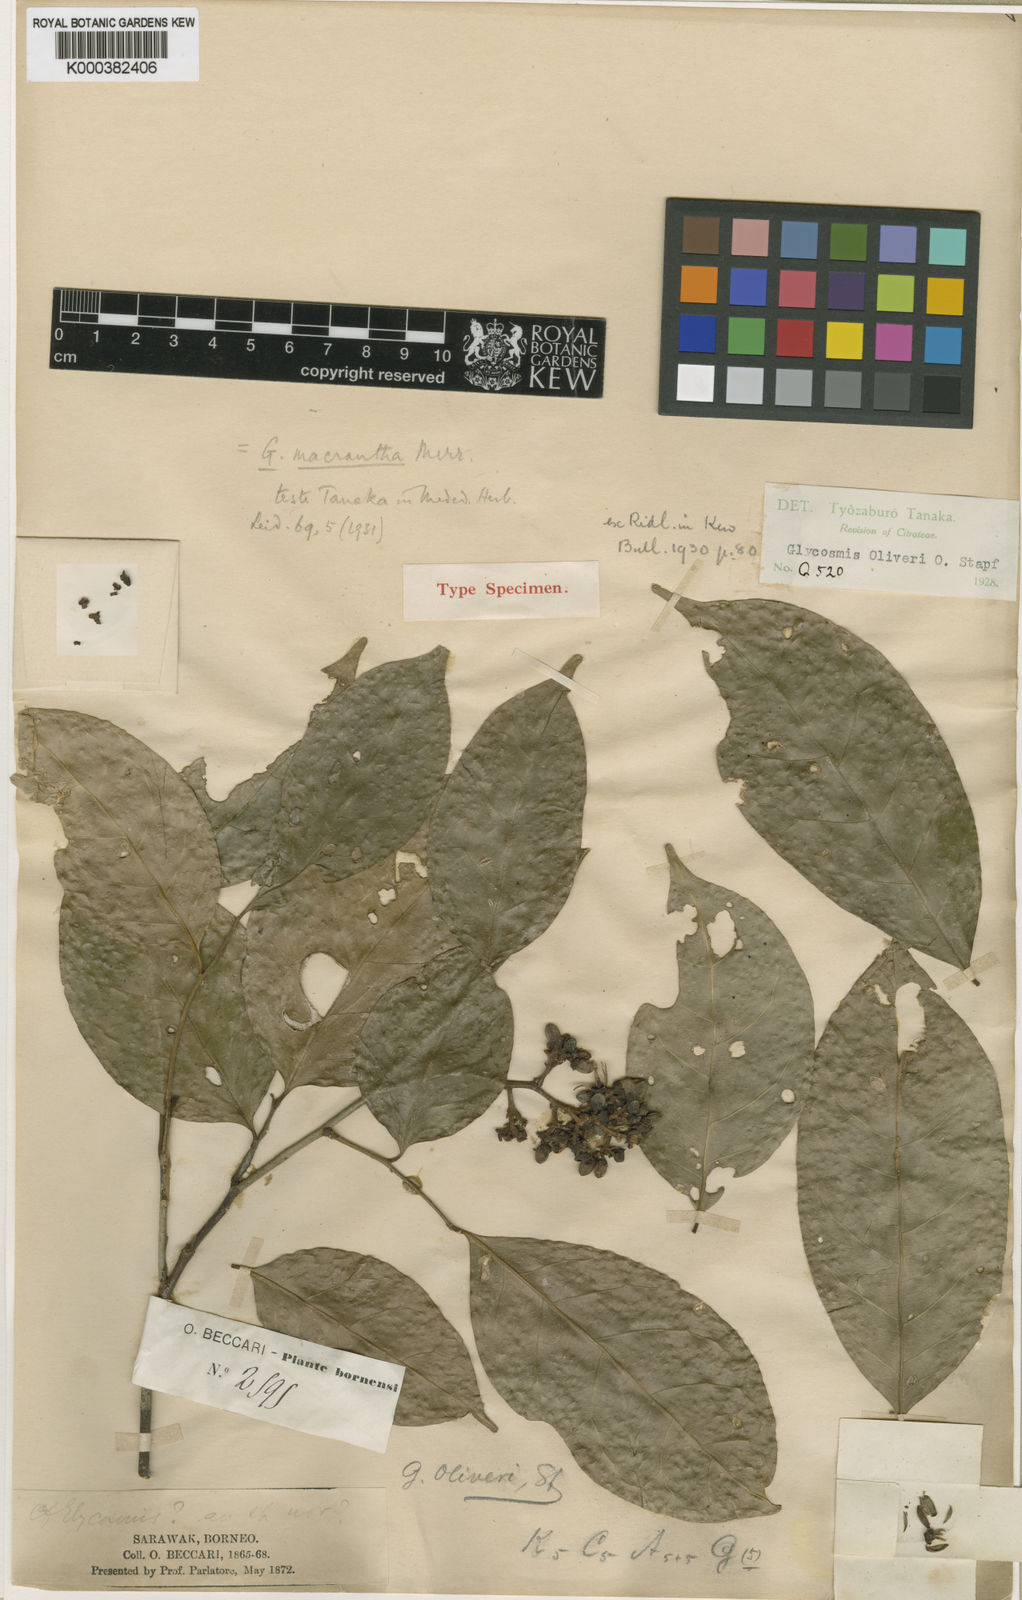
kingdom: Plantae
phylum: Tracheophyta
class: Magnoliopsida
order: Sapindales
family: Rutaceae
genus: Glycosmis
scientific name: Glycosmis macrantha
